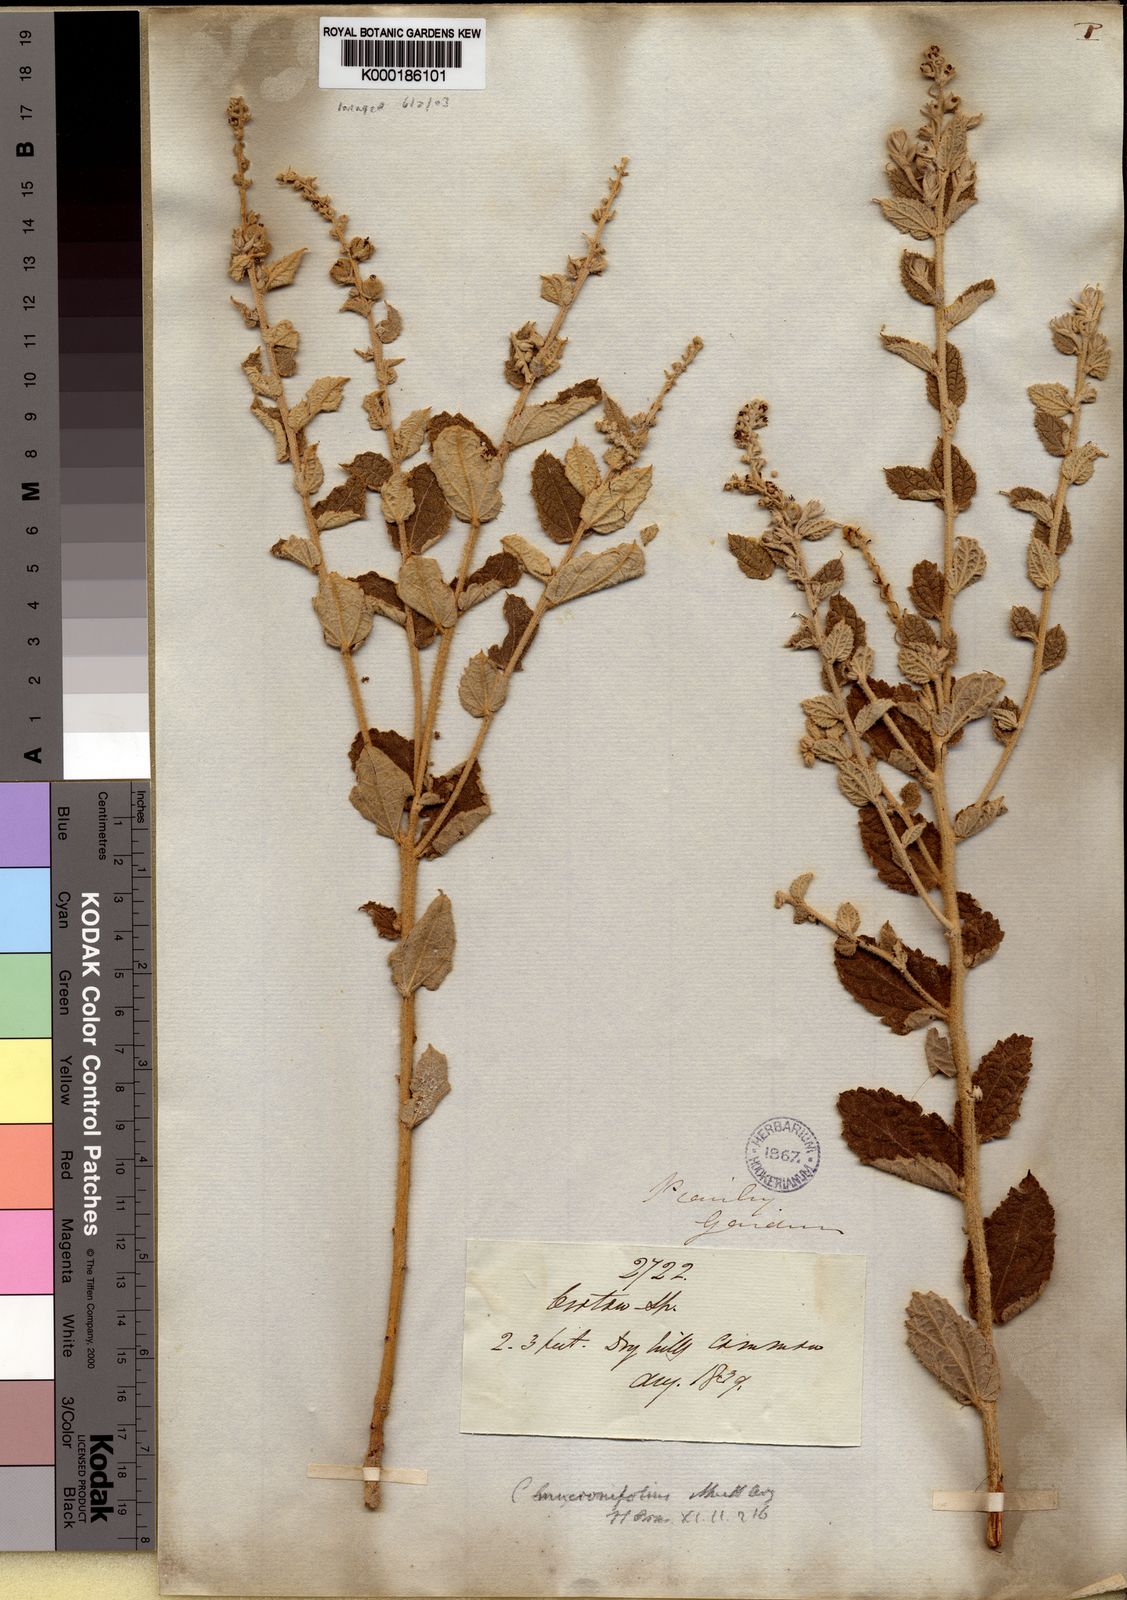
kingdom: Plantae
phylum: Tracheophyta
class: Magnoliopsida
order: Malpighiales
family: Euphorbiaceae
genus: Croton
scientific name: Croton
